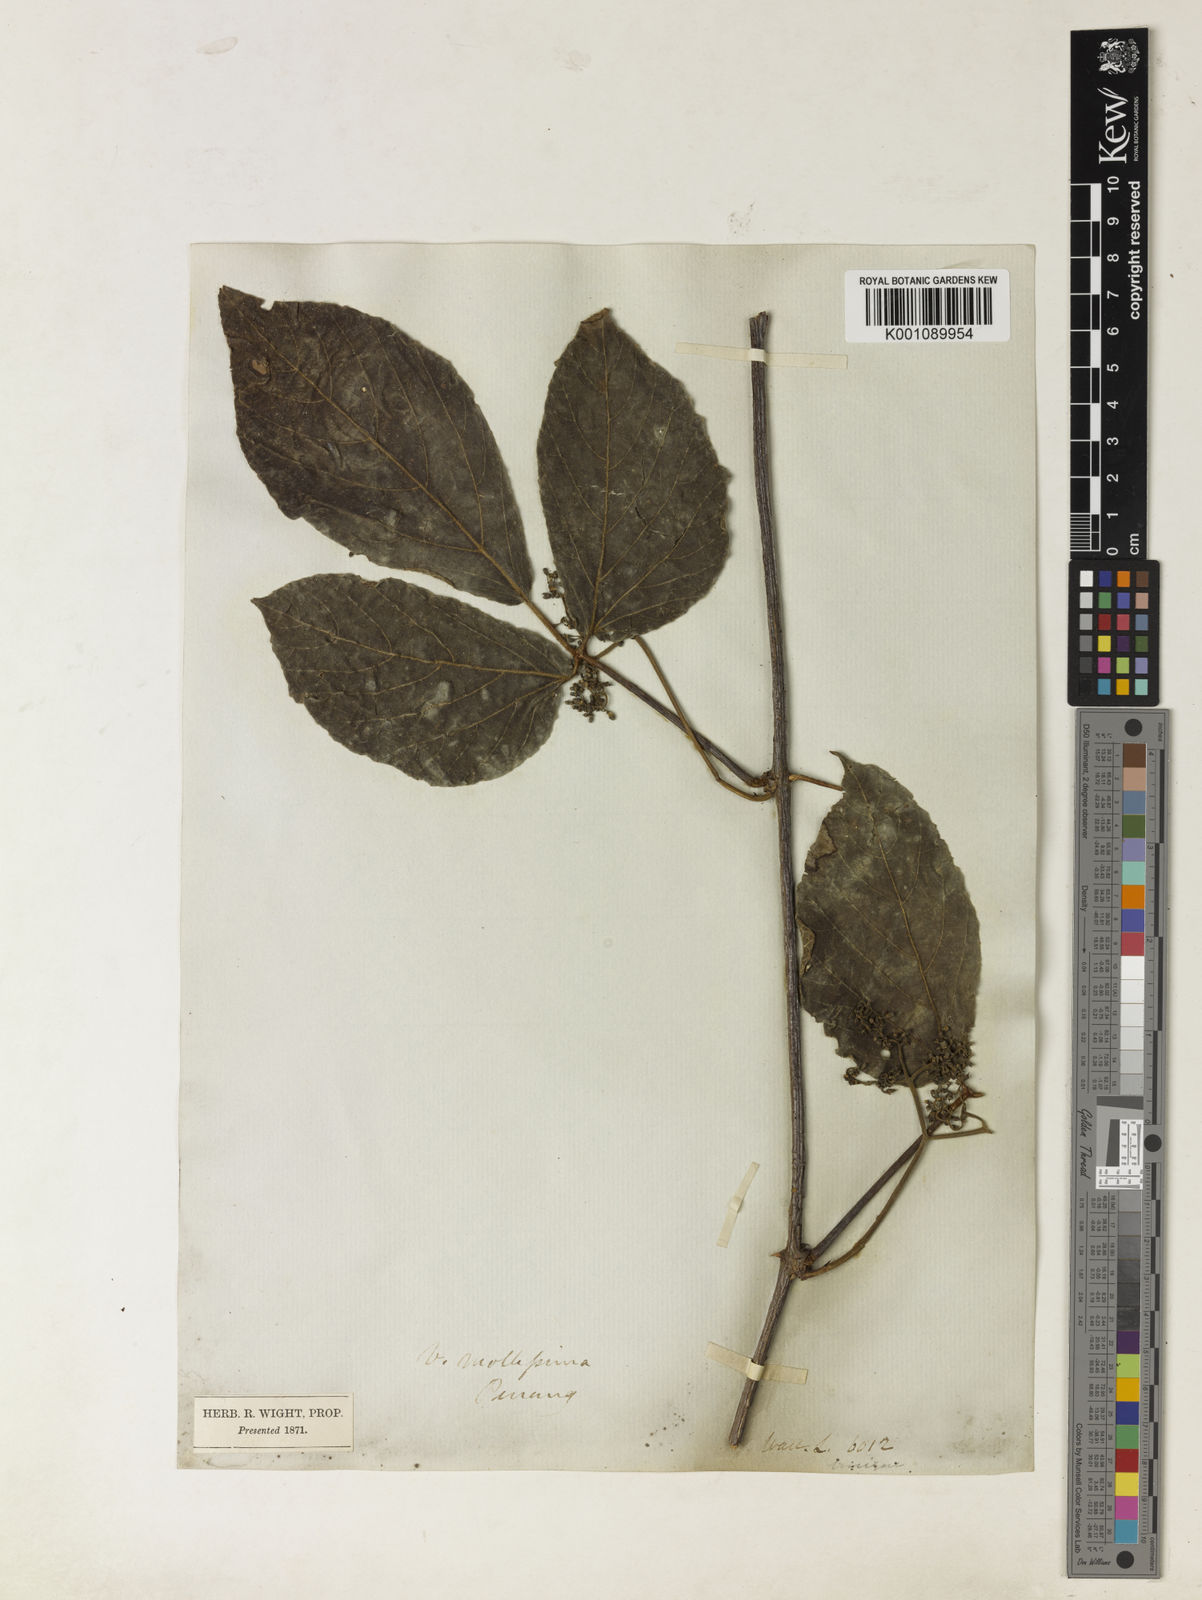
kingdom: Plantae
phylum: Tracheophyta
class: Magnoliopsida
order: Vitales
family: Vitaceae
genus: Cayratia
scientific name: Cayratia mollissima
